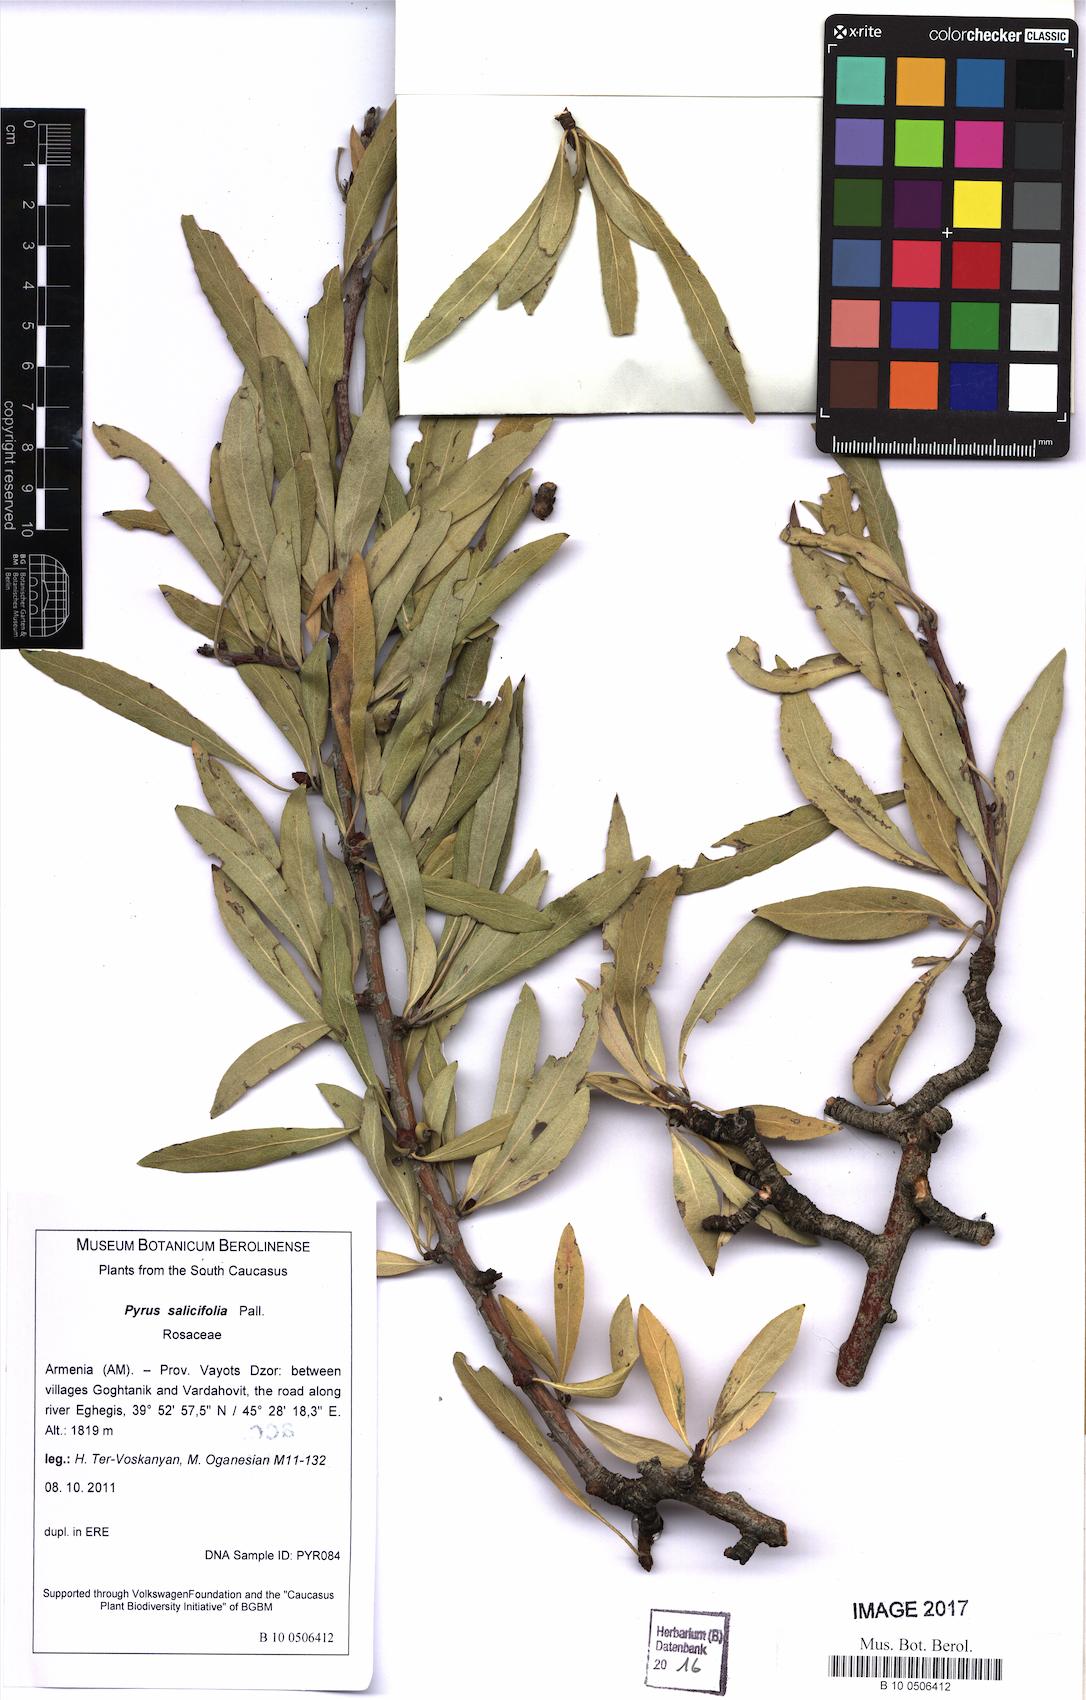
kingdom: Plantae
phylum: Tracheophyta
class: Magnoliopsida
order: Rosales
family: Rosaceae
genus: Pyrus
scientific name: Pyrus salicifolia
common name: Willow-leaved pear
